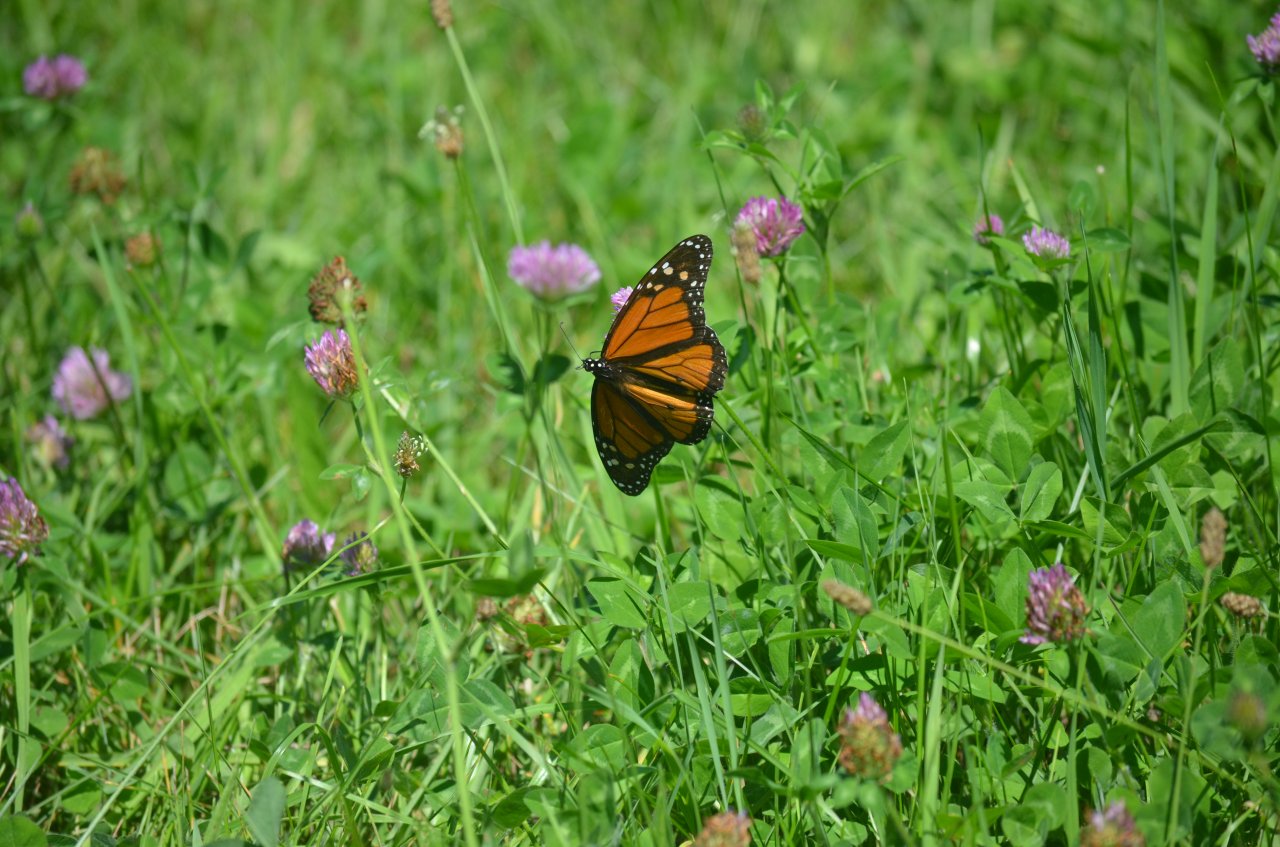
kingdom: Animalia
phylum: Arthropoda
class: Insecta
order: Lepidoptera
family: Nymphalidae
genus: Danaus
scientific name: Danaus plexippus
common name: Monarch
